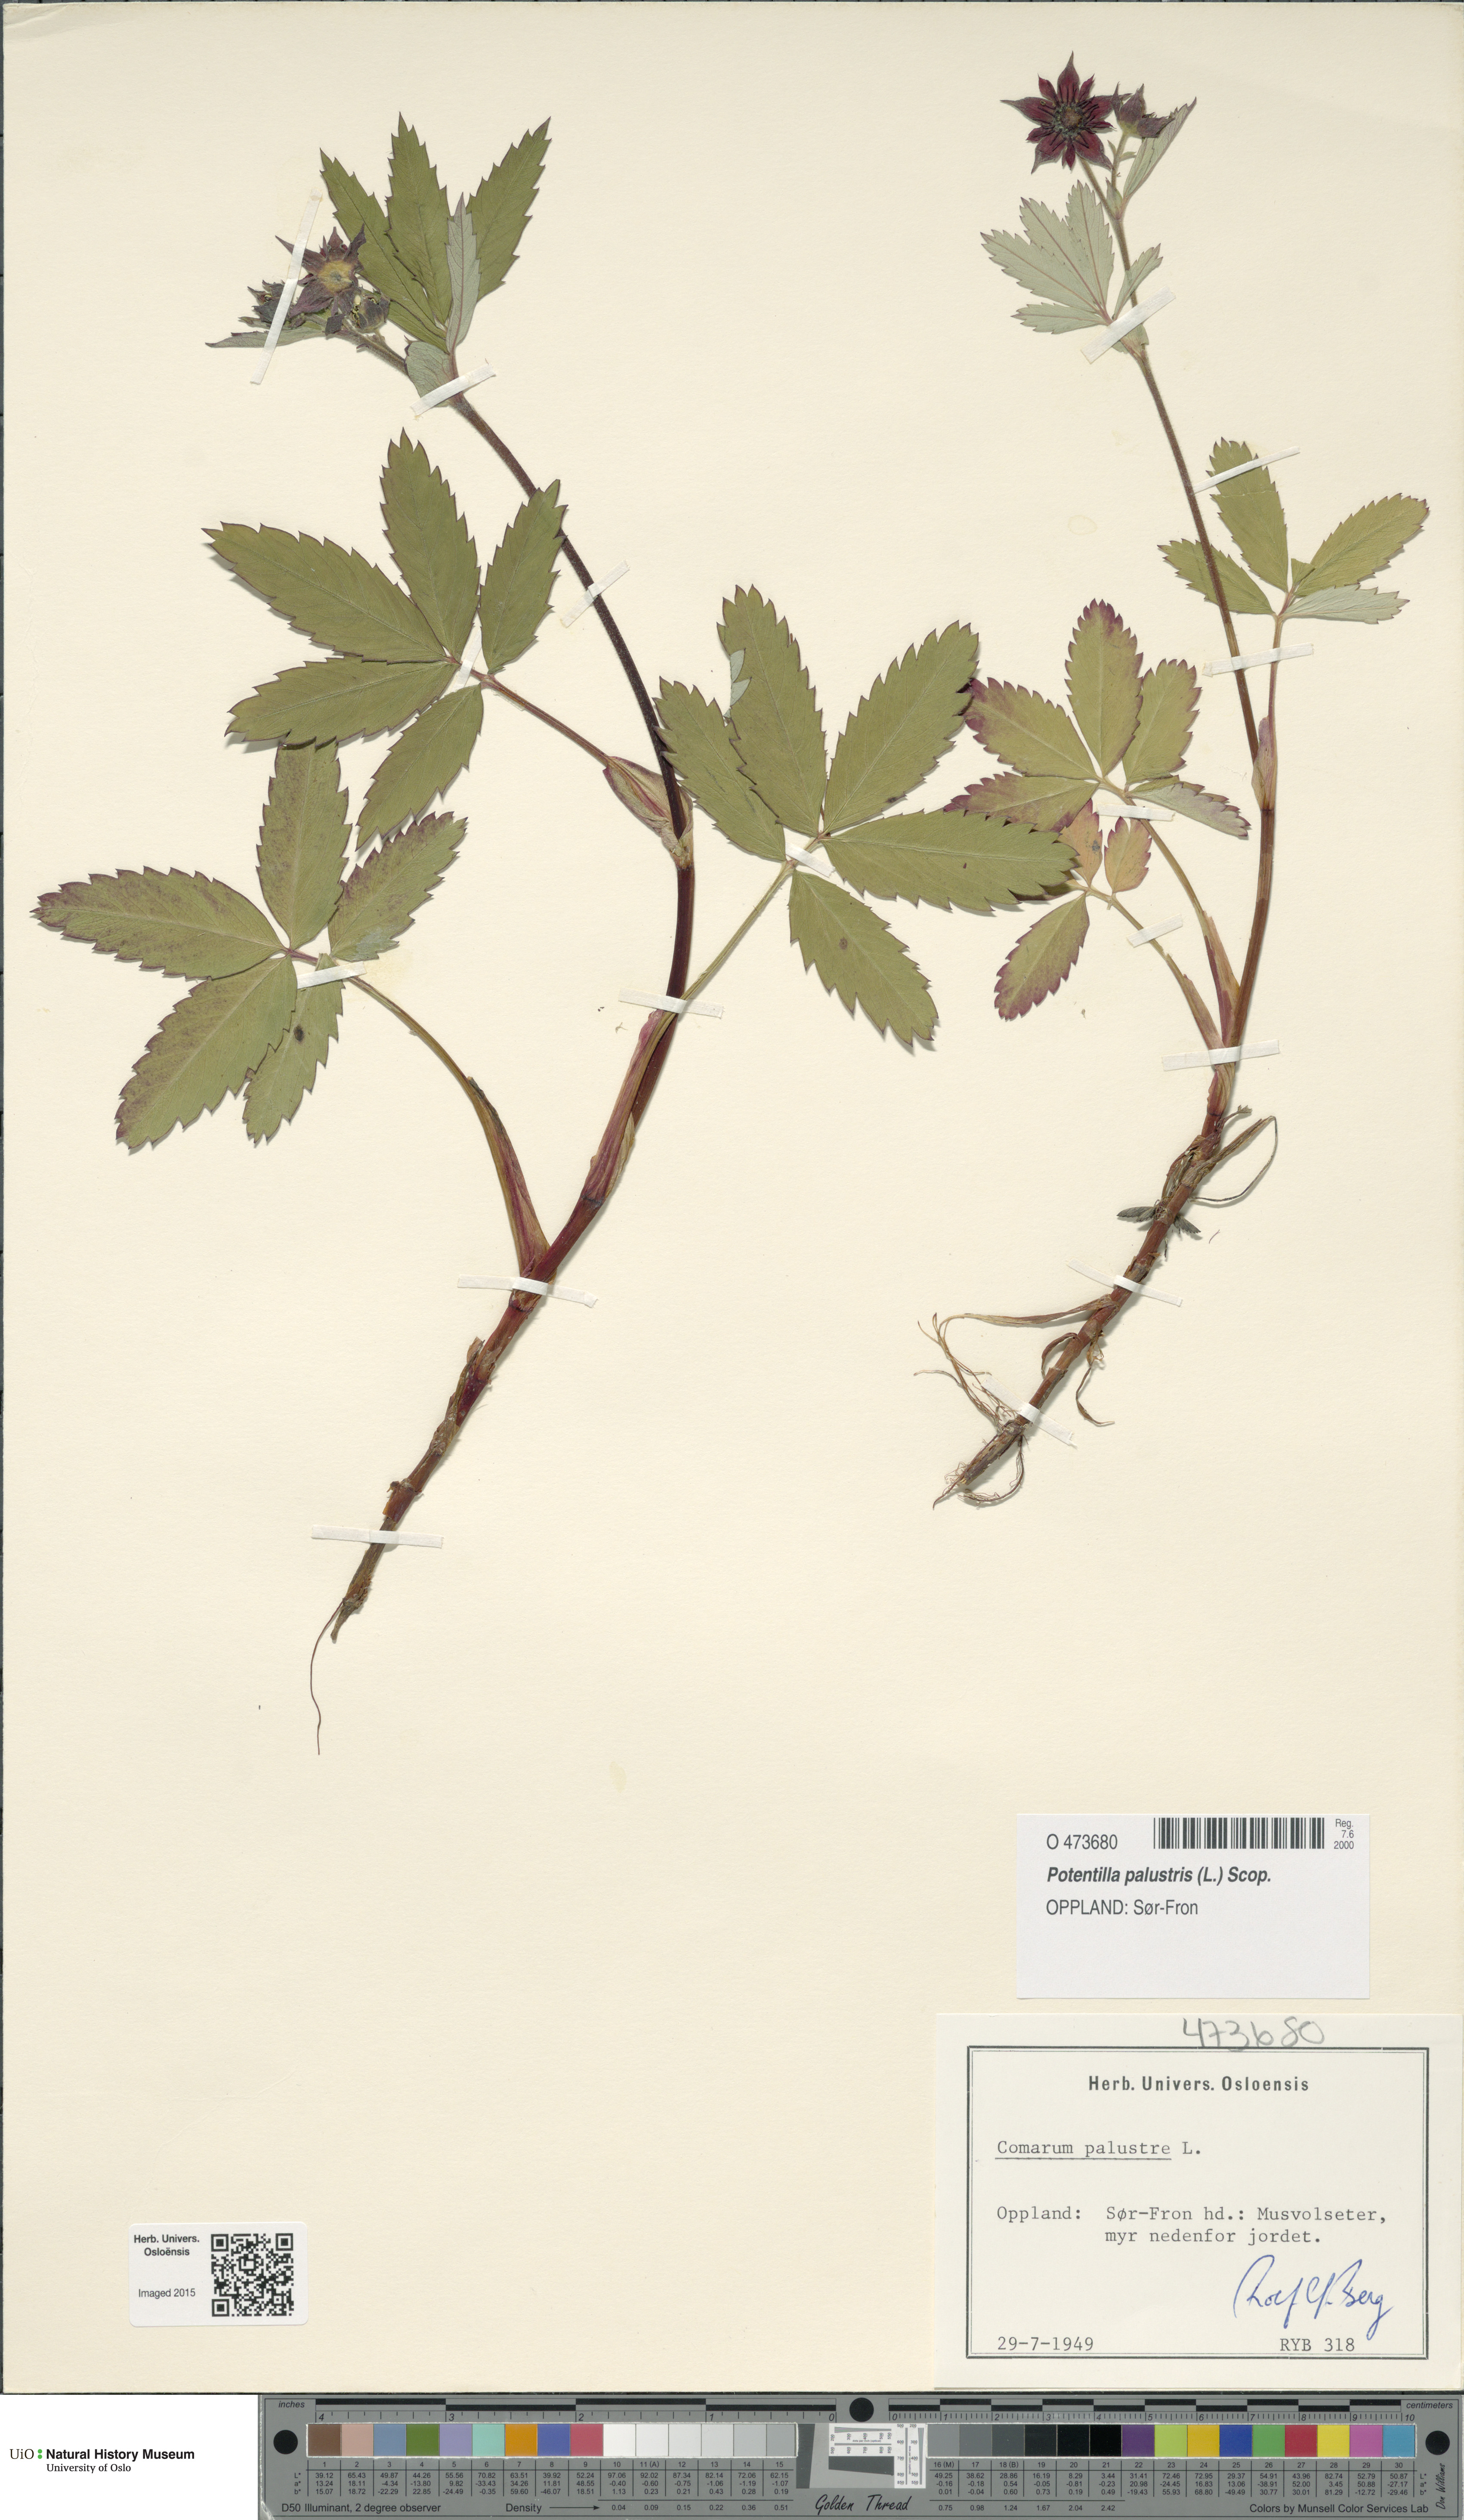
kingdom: Plantae
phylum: Tracheophyta
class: Magnoliopsida
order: Rosales
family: Rosaceae
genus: Comarum
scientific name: Comarum palustre
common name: Marsh cinquefoil
